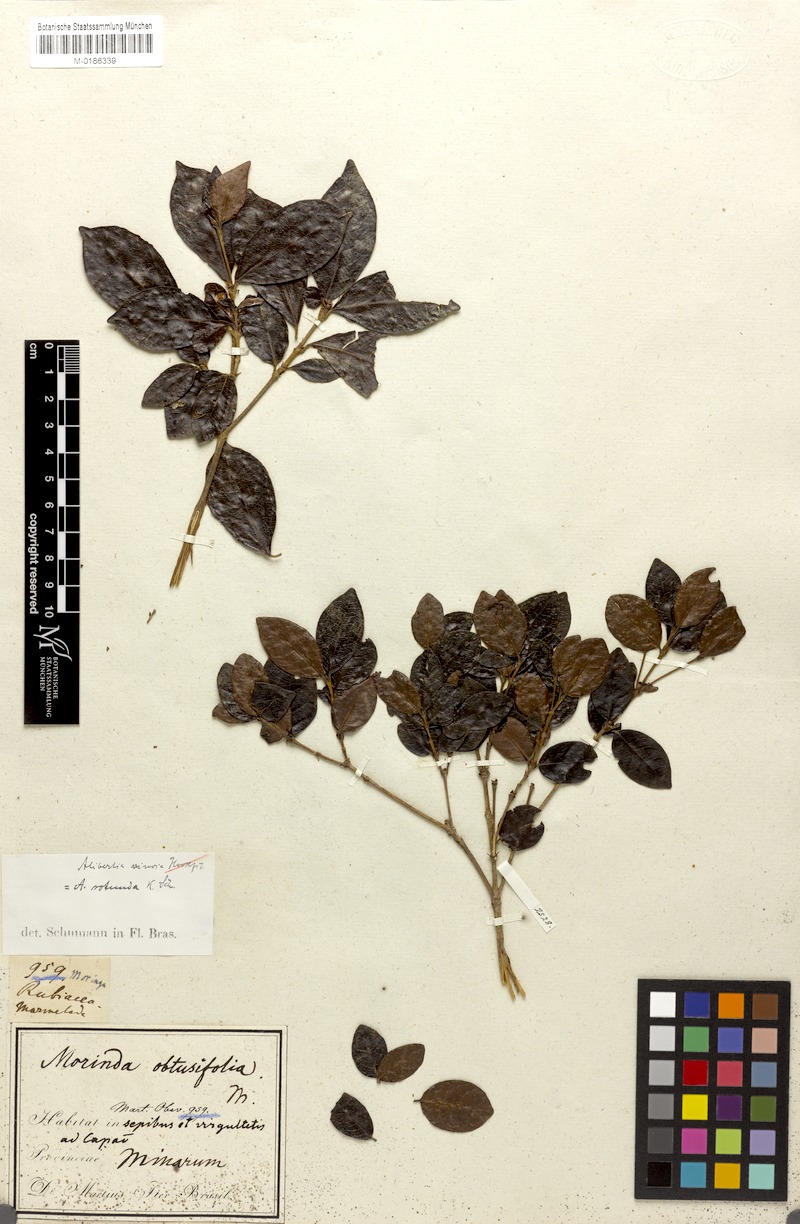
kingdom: Plantae
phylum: Tracheophyta
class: Magnoliopsida
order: Gentianales
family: Rubiaceae
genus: Cordiera
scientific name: Cordiera concolor
